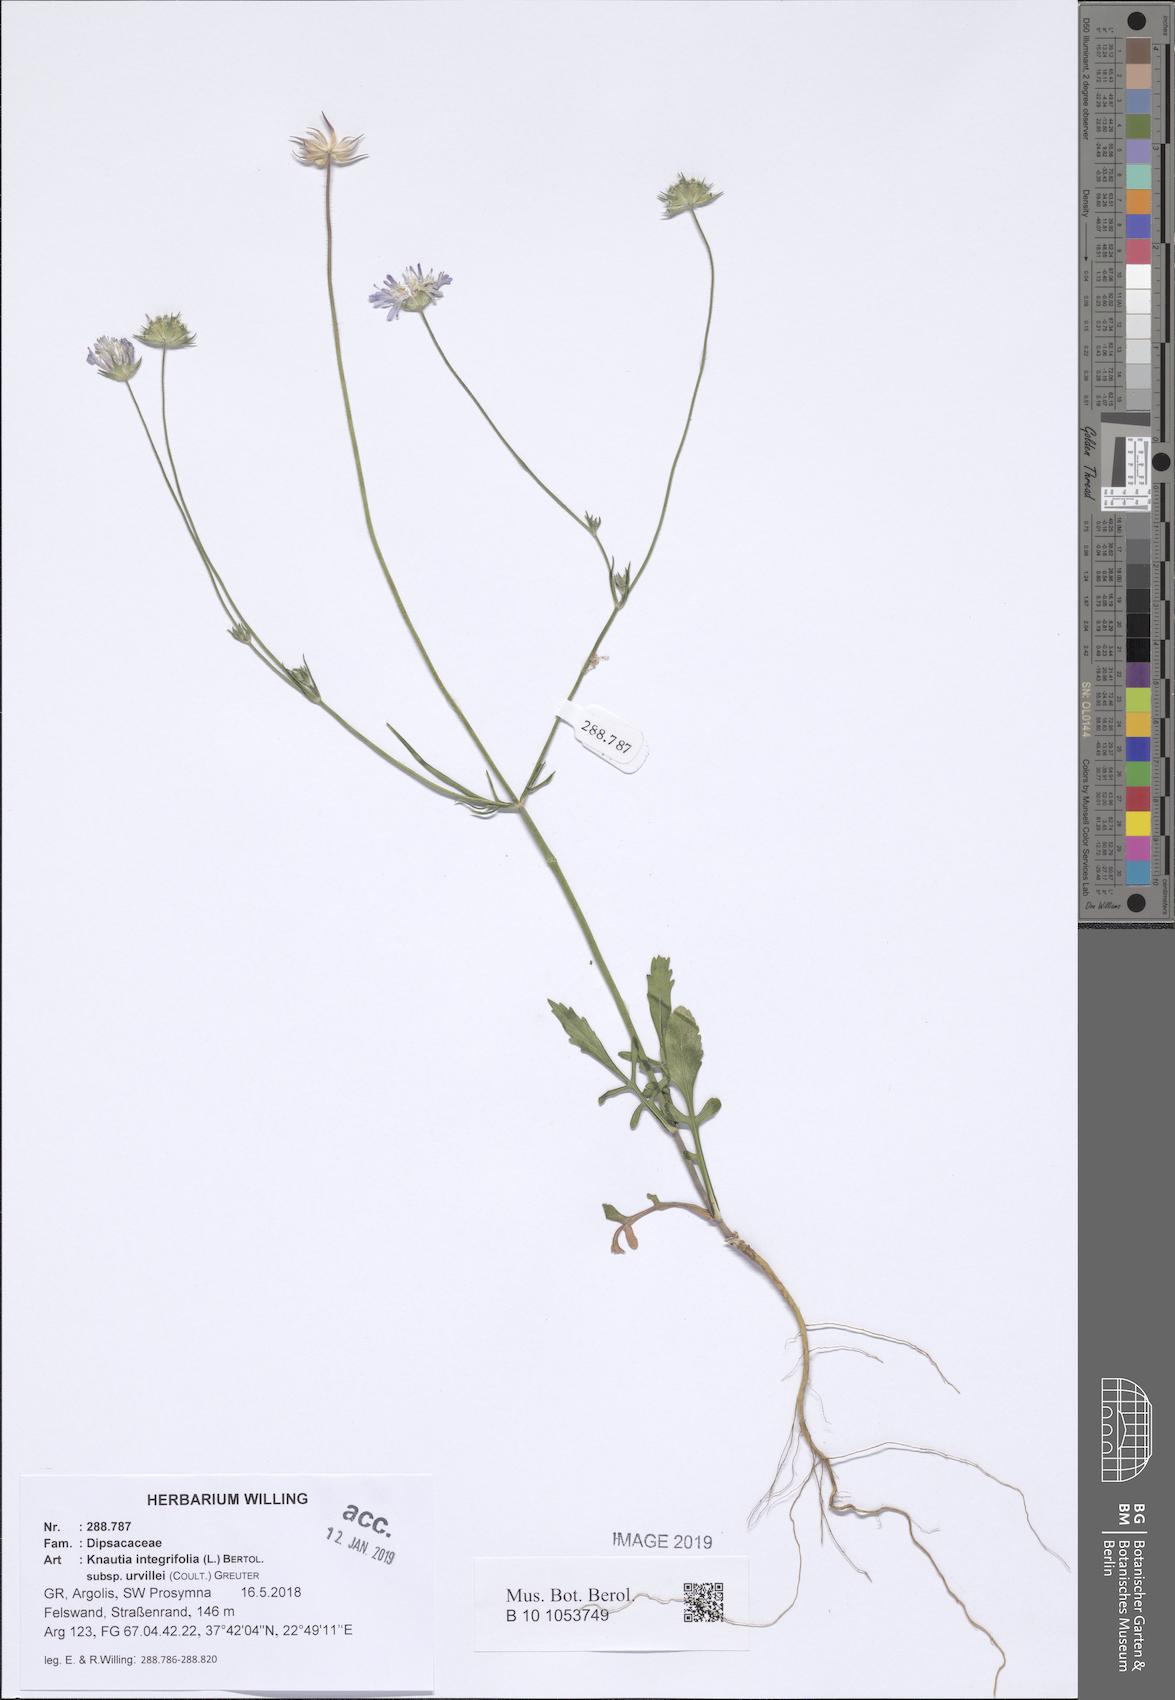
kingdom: Plantae
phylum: Tracheophyta
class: Magnoliopsida
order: Dipsacales
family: Caprifoliaceae
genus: Knautia
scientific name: Knautia integrifolia
